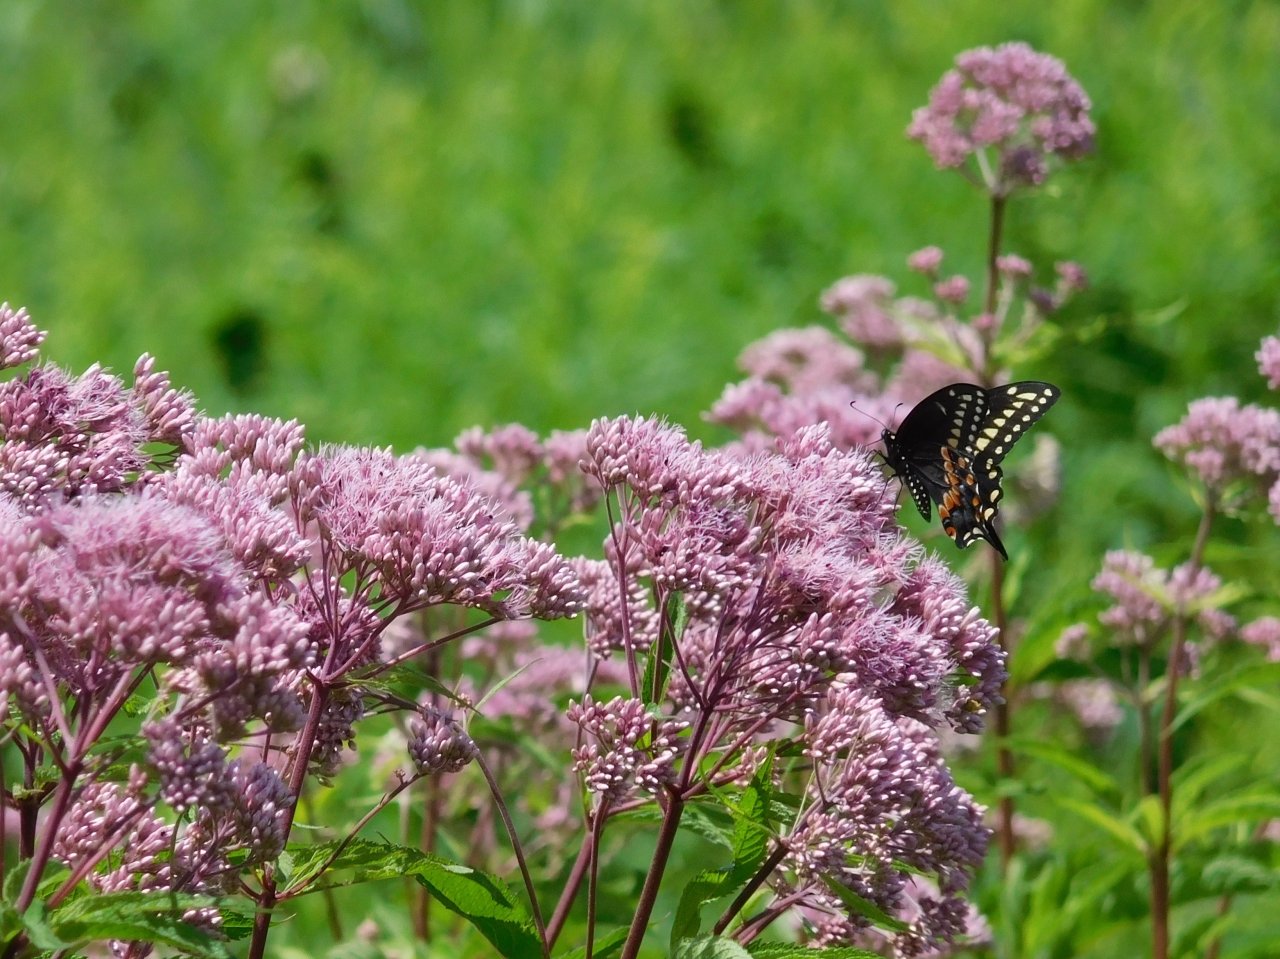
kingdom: Animalia
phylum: Arthropoda
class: Insecta
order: Lepidoptera
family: Papilionidae
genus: Papilio
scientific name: Papilio polyxenes
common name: Black Swallowtail
